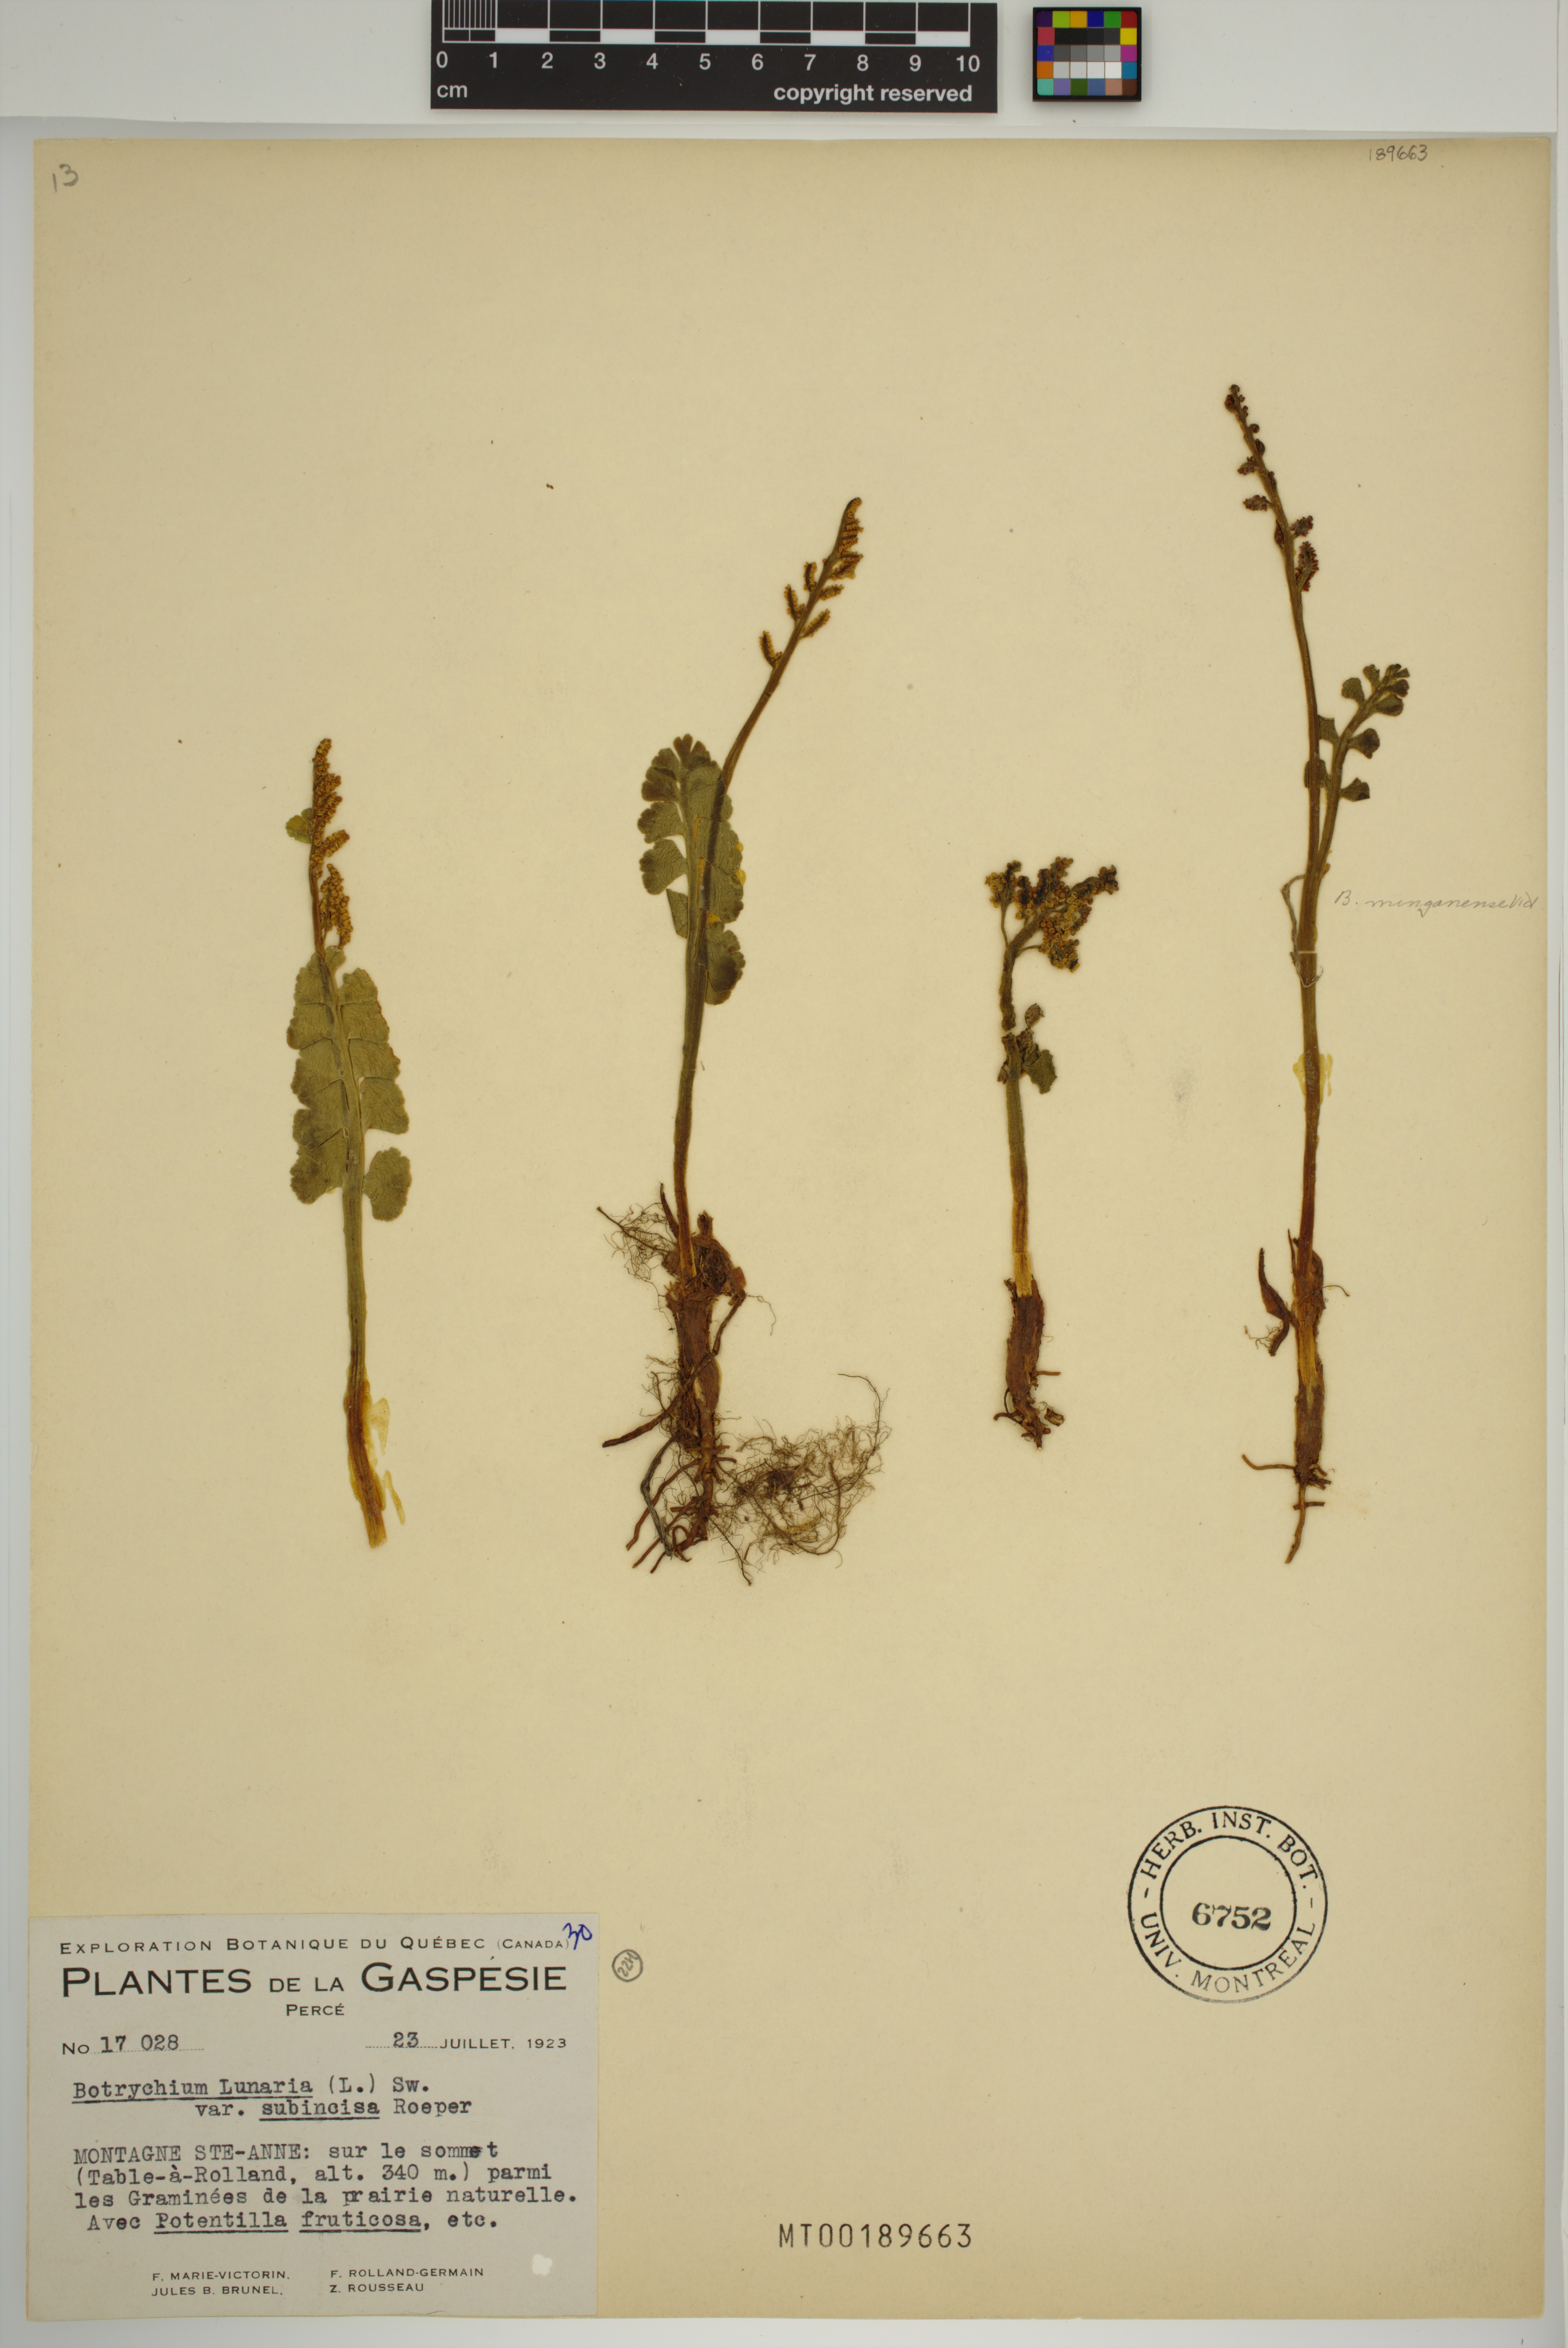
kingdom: Plantae
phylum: Tracheophyta
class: Polypodiopsida
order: Ophioglossales
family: Ophioglossaceae
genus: Botrychium
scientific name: Botrychium lunaria
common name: Moonwort
